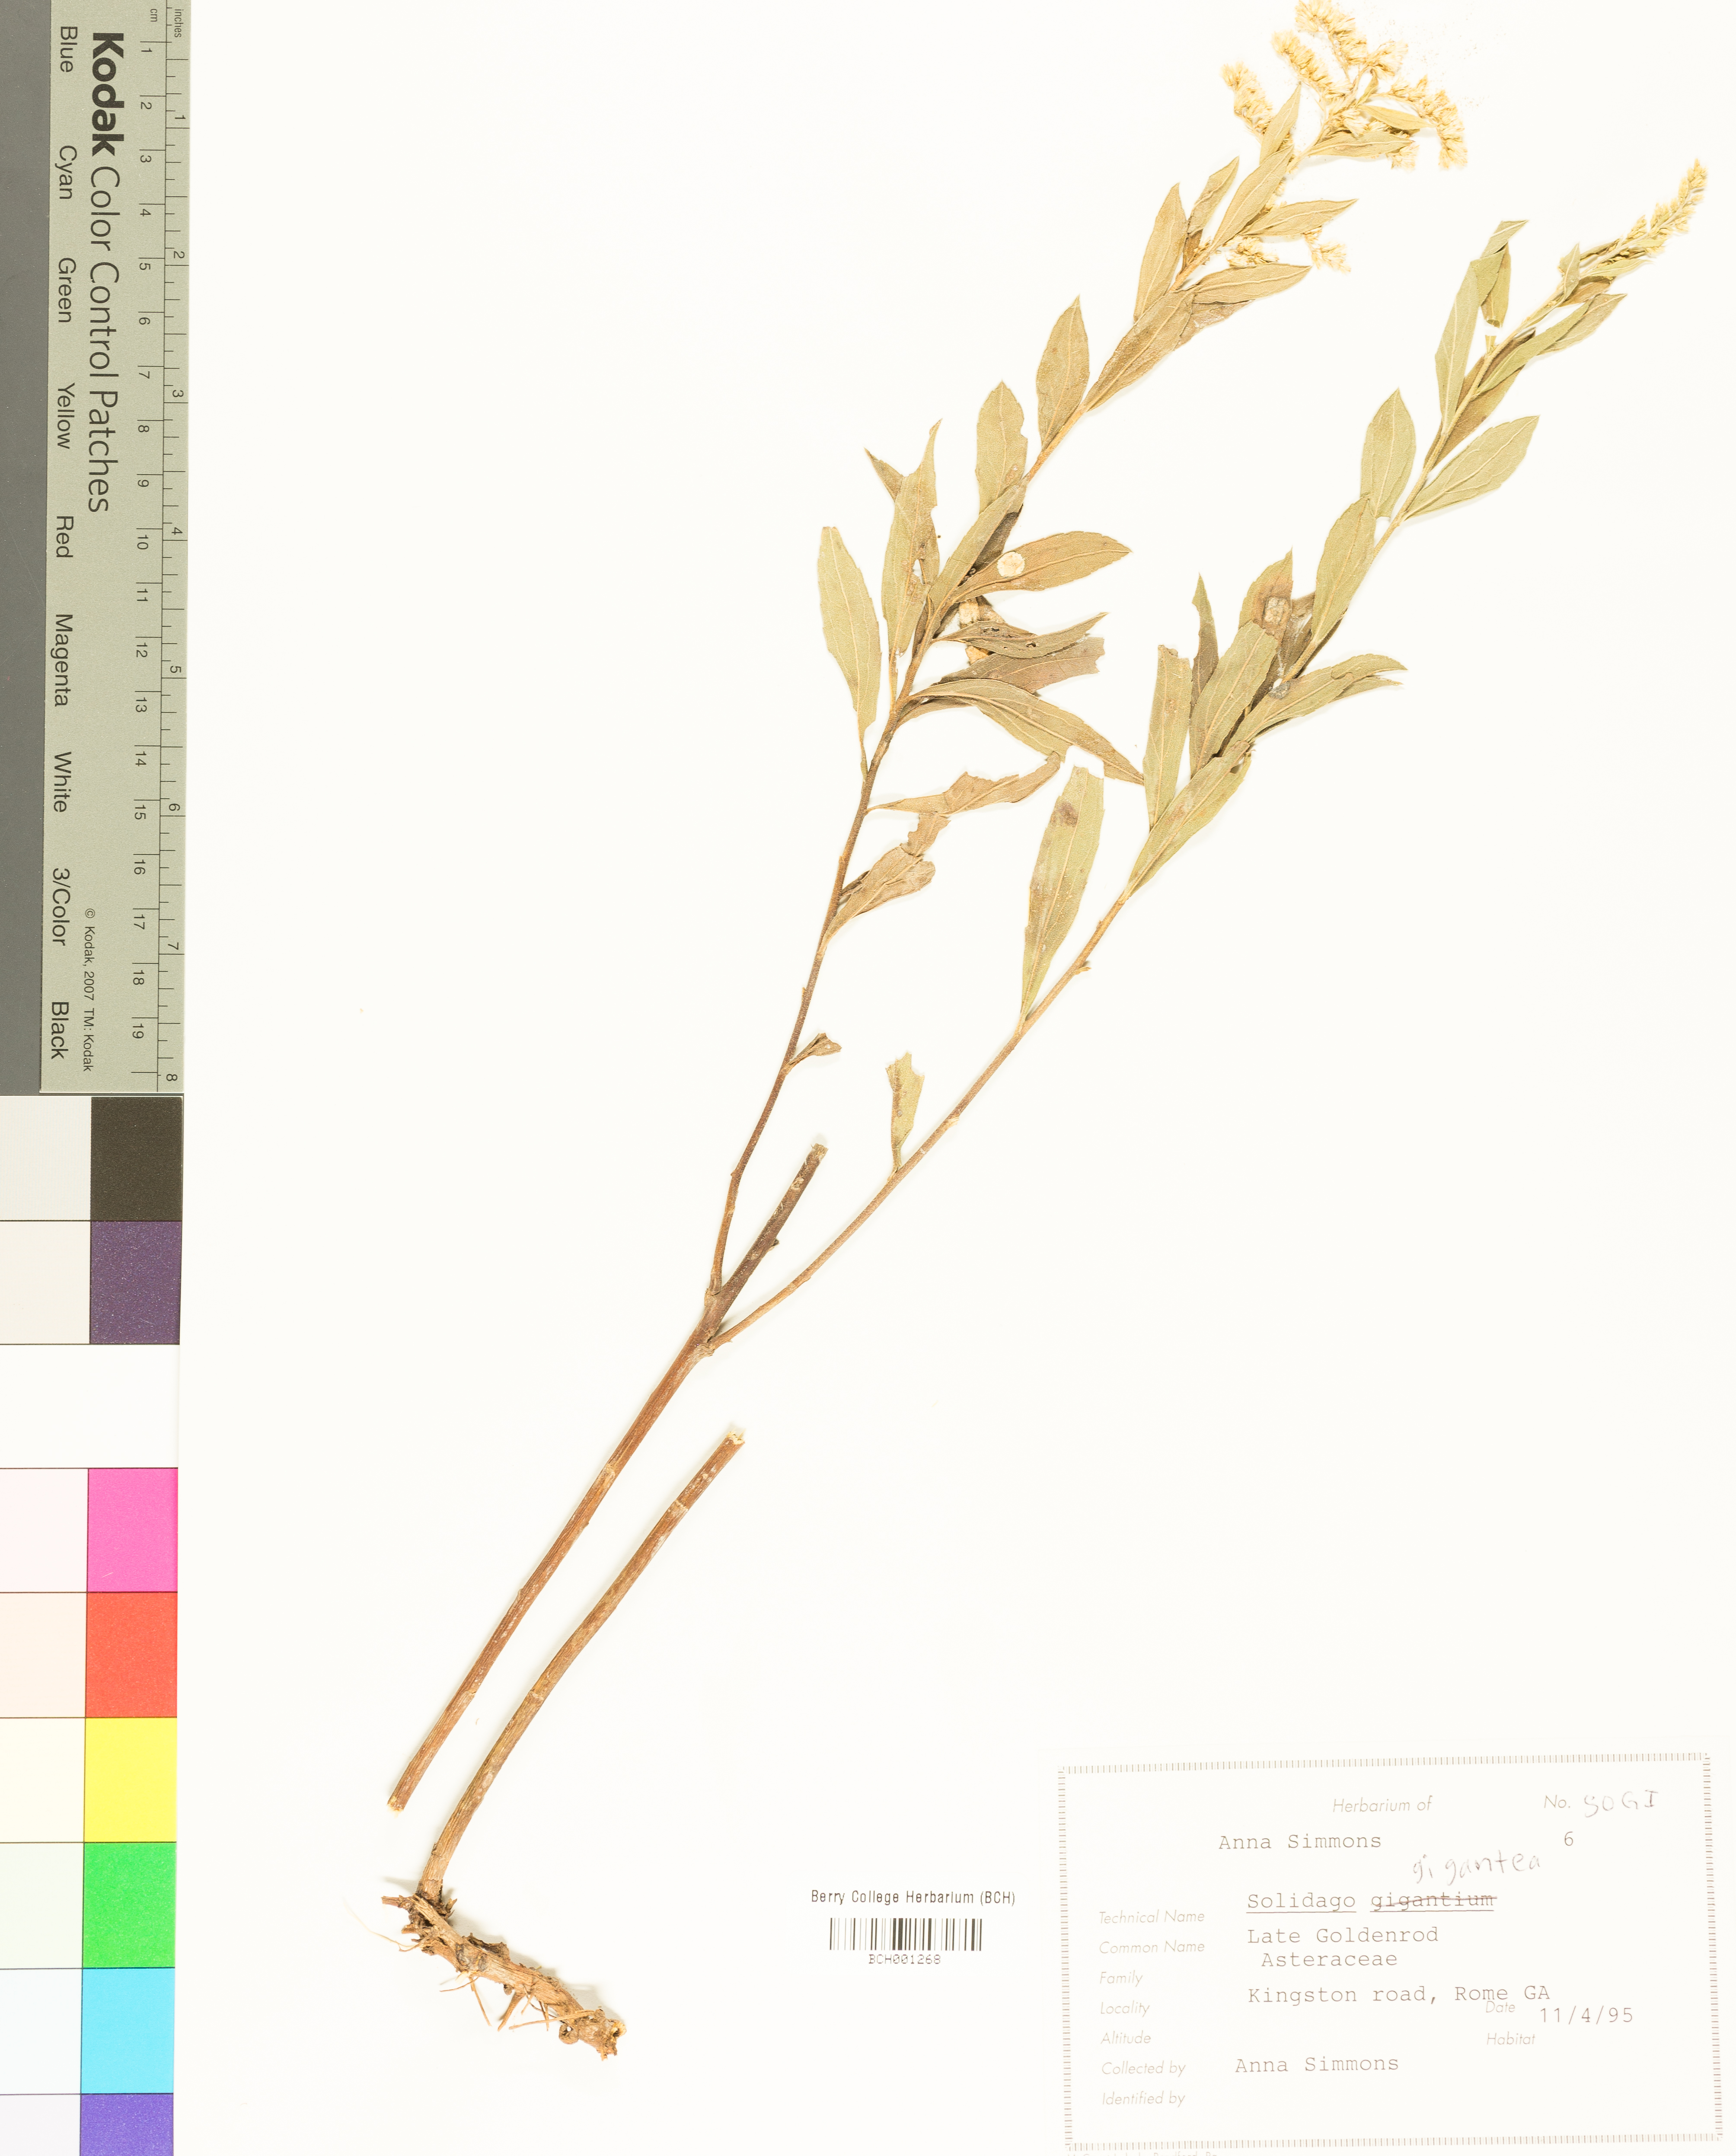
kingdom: Plantae
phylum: Tracheophyta
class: Magnoliopsida
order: Asterales
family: Asteraceae
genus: Solidago
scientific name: Solidago gigantea
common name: Giant goldenrod
